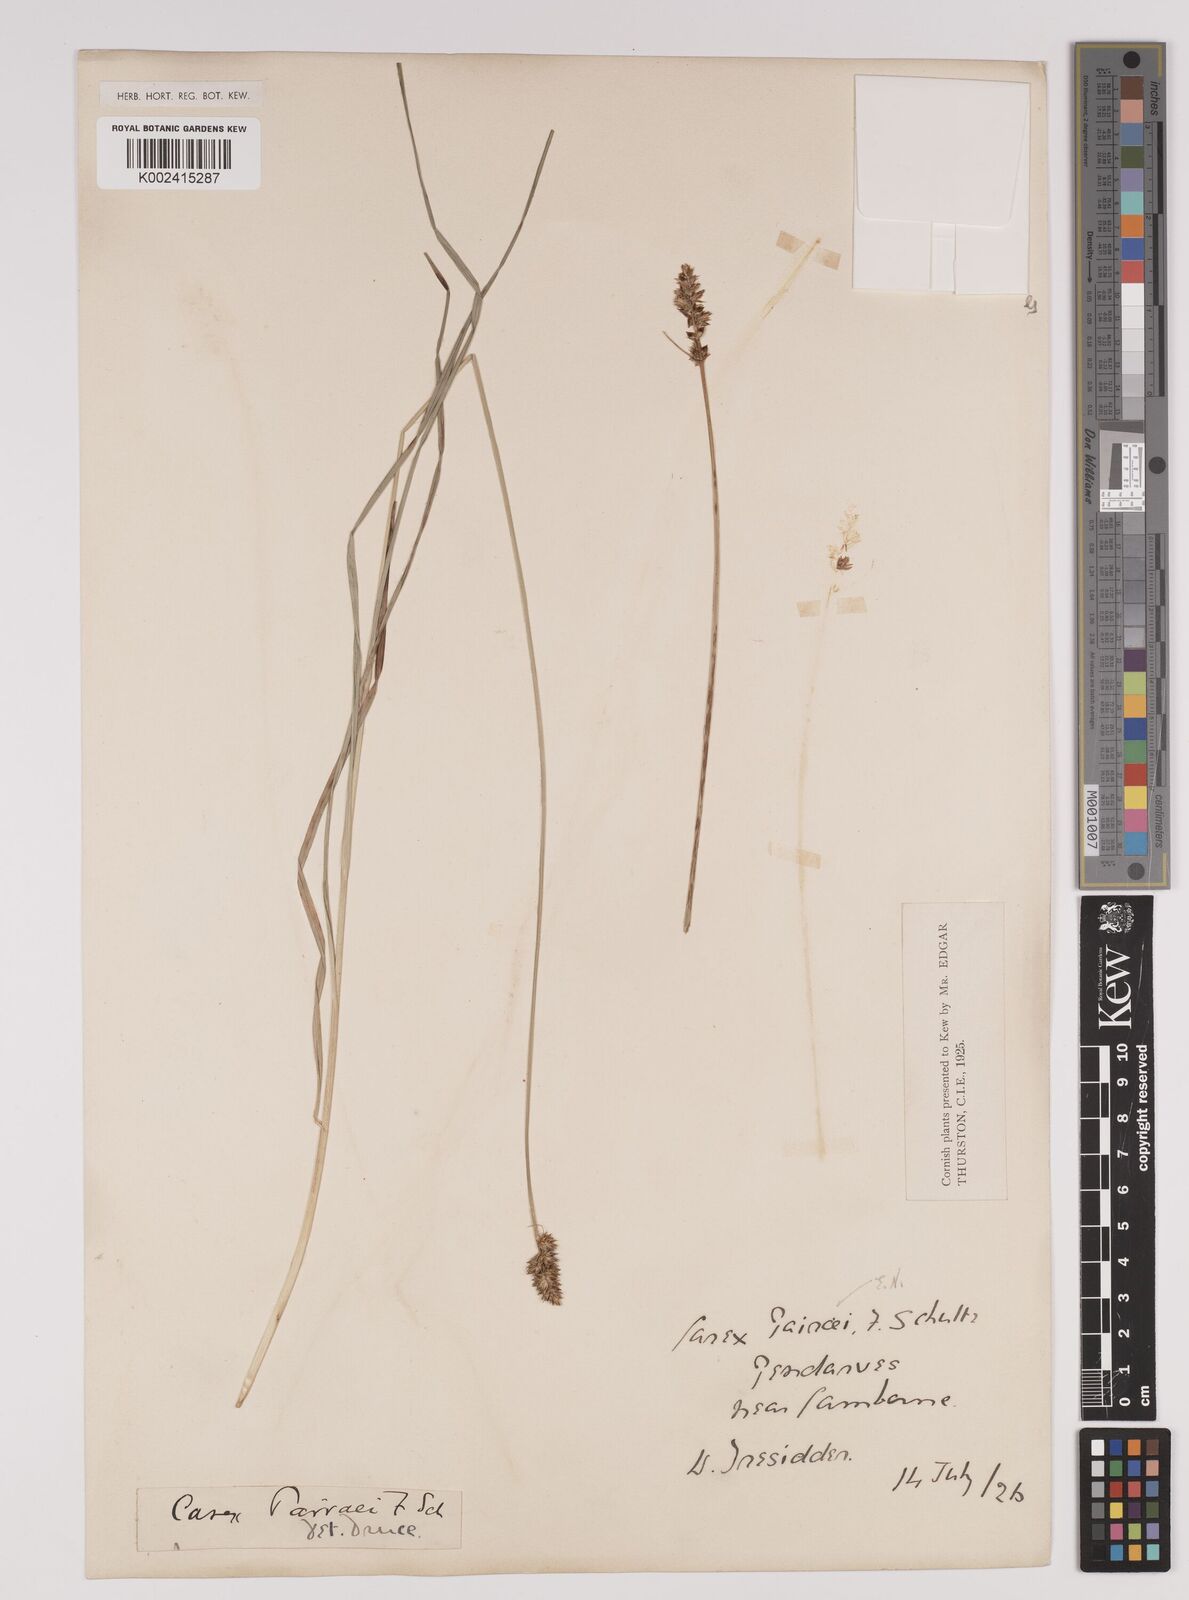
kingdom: Plantae
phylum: Tracheophyta
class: Liliopsida
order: Poales
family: Cyperaceae
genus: Carex
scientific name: Carex pulicaris
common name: Flea sedge
